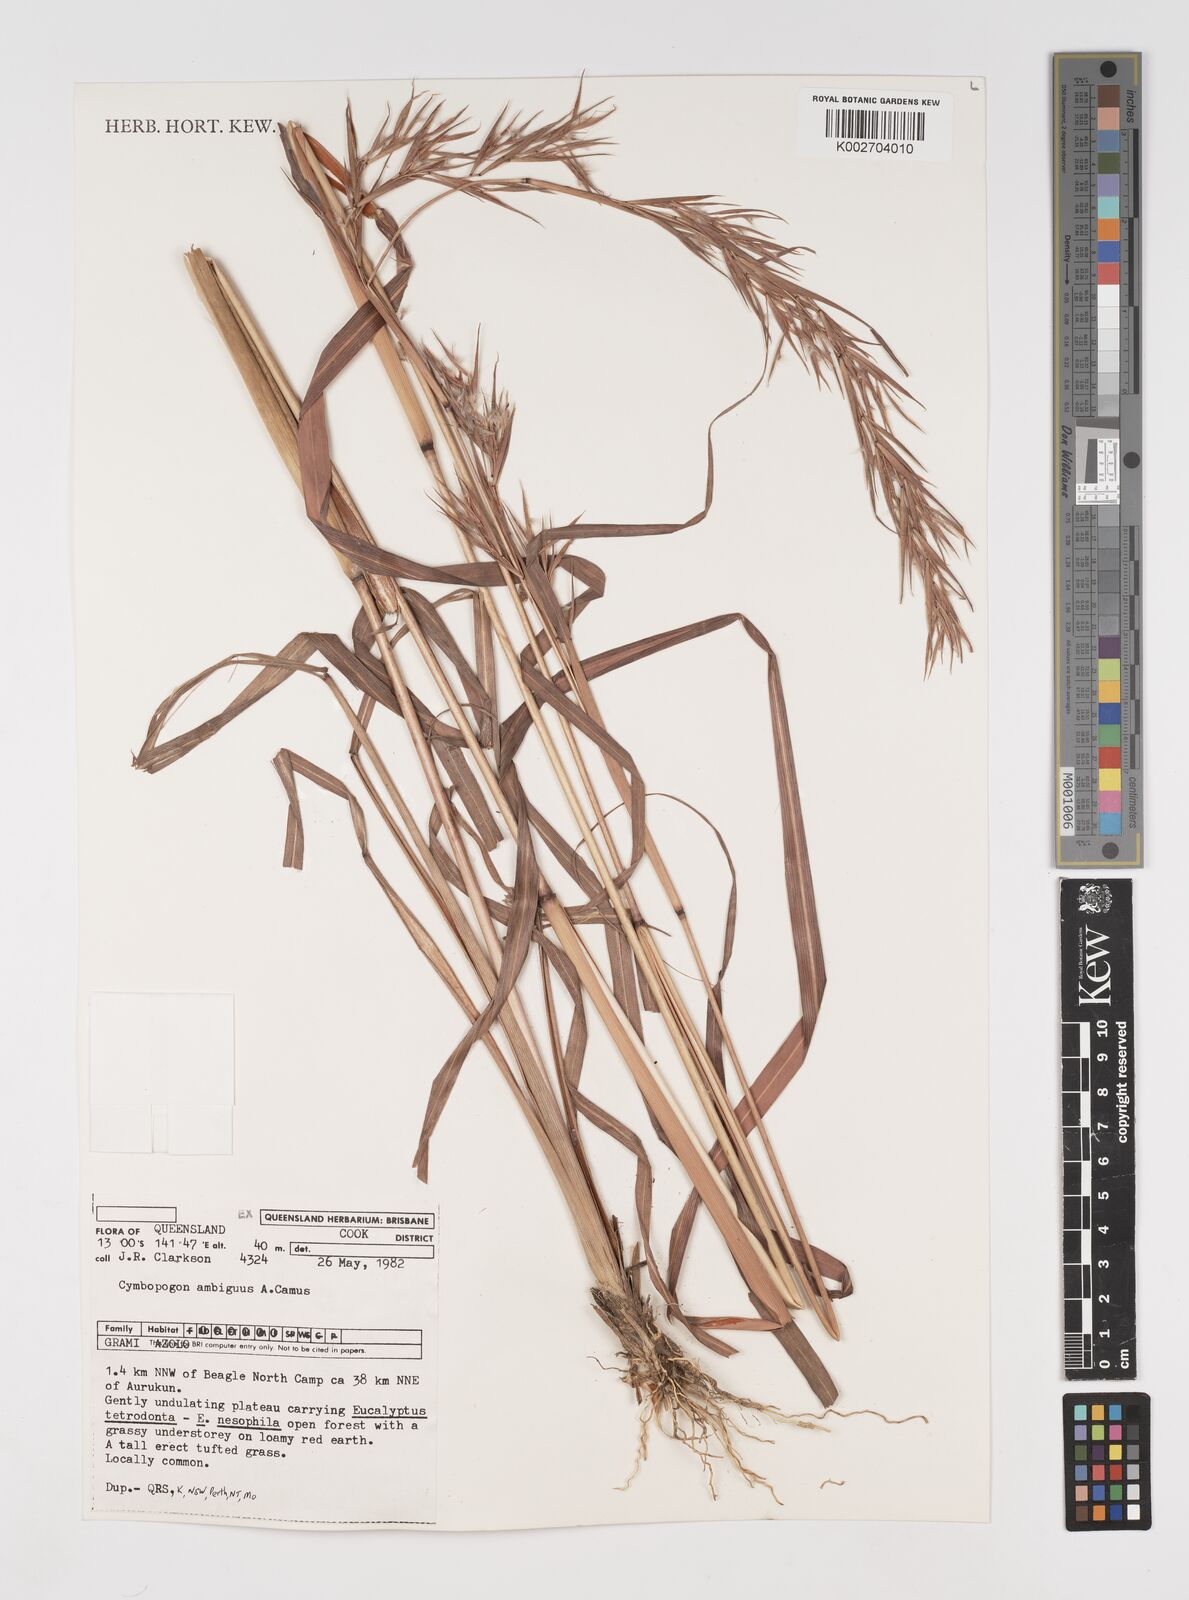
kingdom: Plantae
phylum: Tracheophyta
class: Liliopsida
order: Poales
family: Poaceae
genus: Cymbopogon
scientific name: Cymbopogon ambiguus
